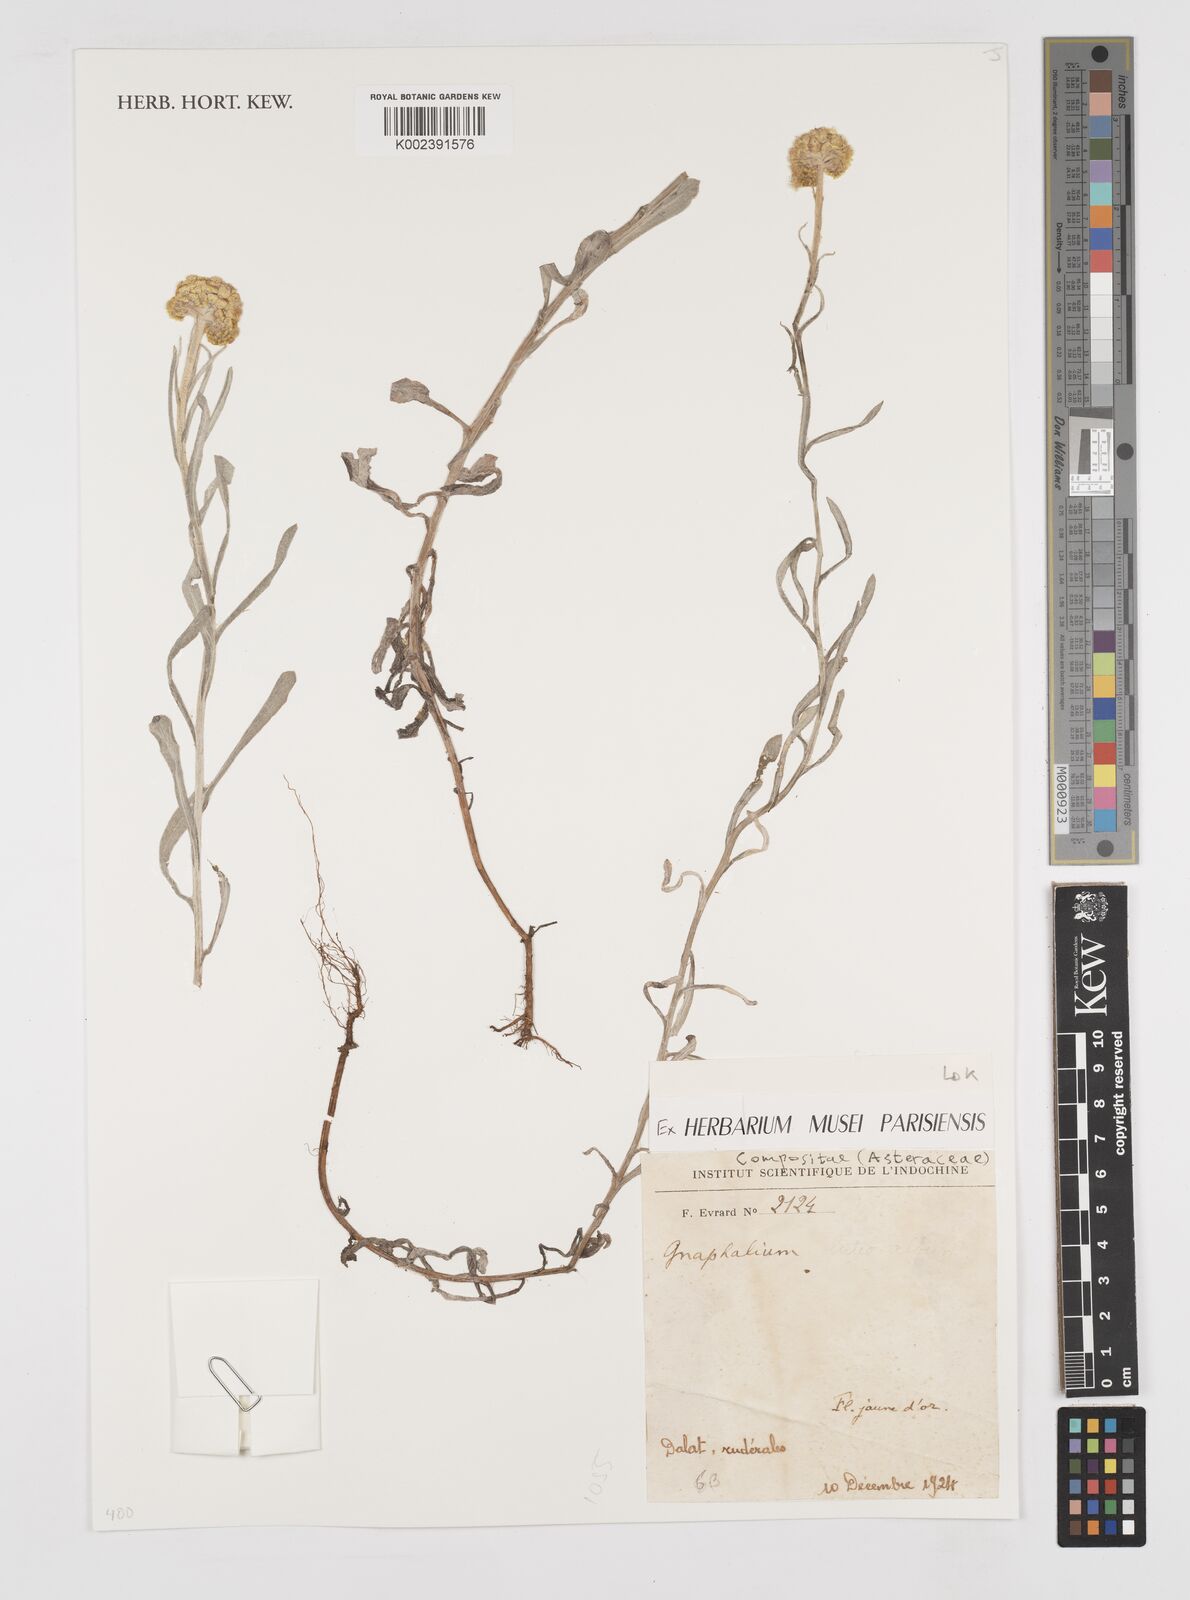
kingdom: Plantae
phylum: Tracheophyta
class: Magnoliopsida
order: Asterales
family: Asteraceae
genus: Gnaphalium
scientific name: Gnaphalium
